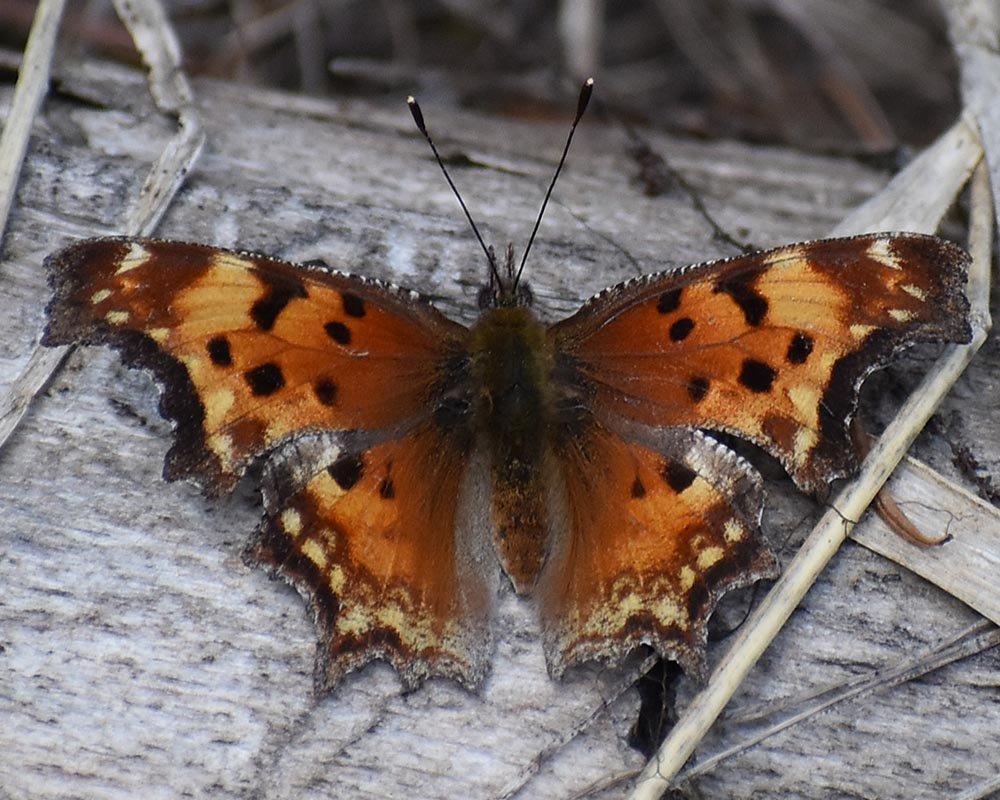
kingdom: Animalia
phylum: Arthropoda
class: Insecta
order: Lepidoptera
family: Nymphalidae
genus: Polygonia
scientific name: Polygonia gracilis
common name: Hoary Comma
